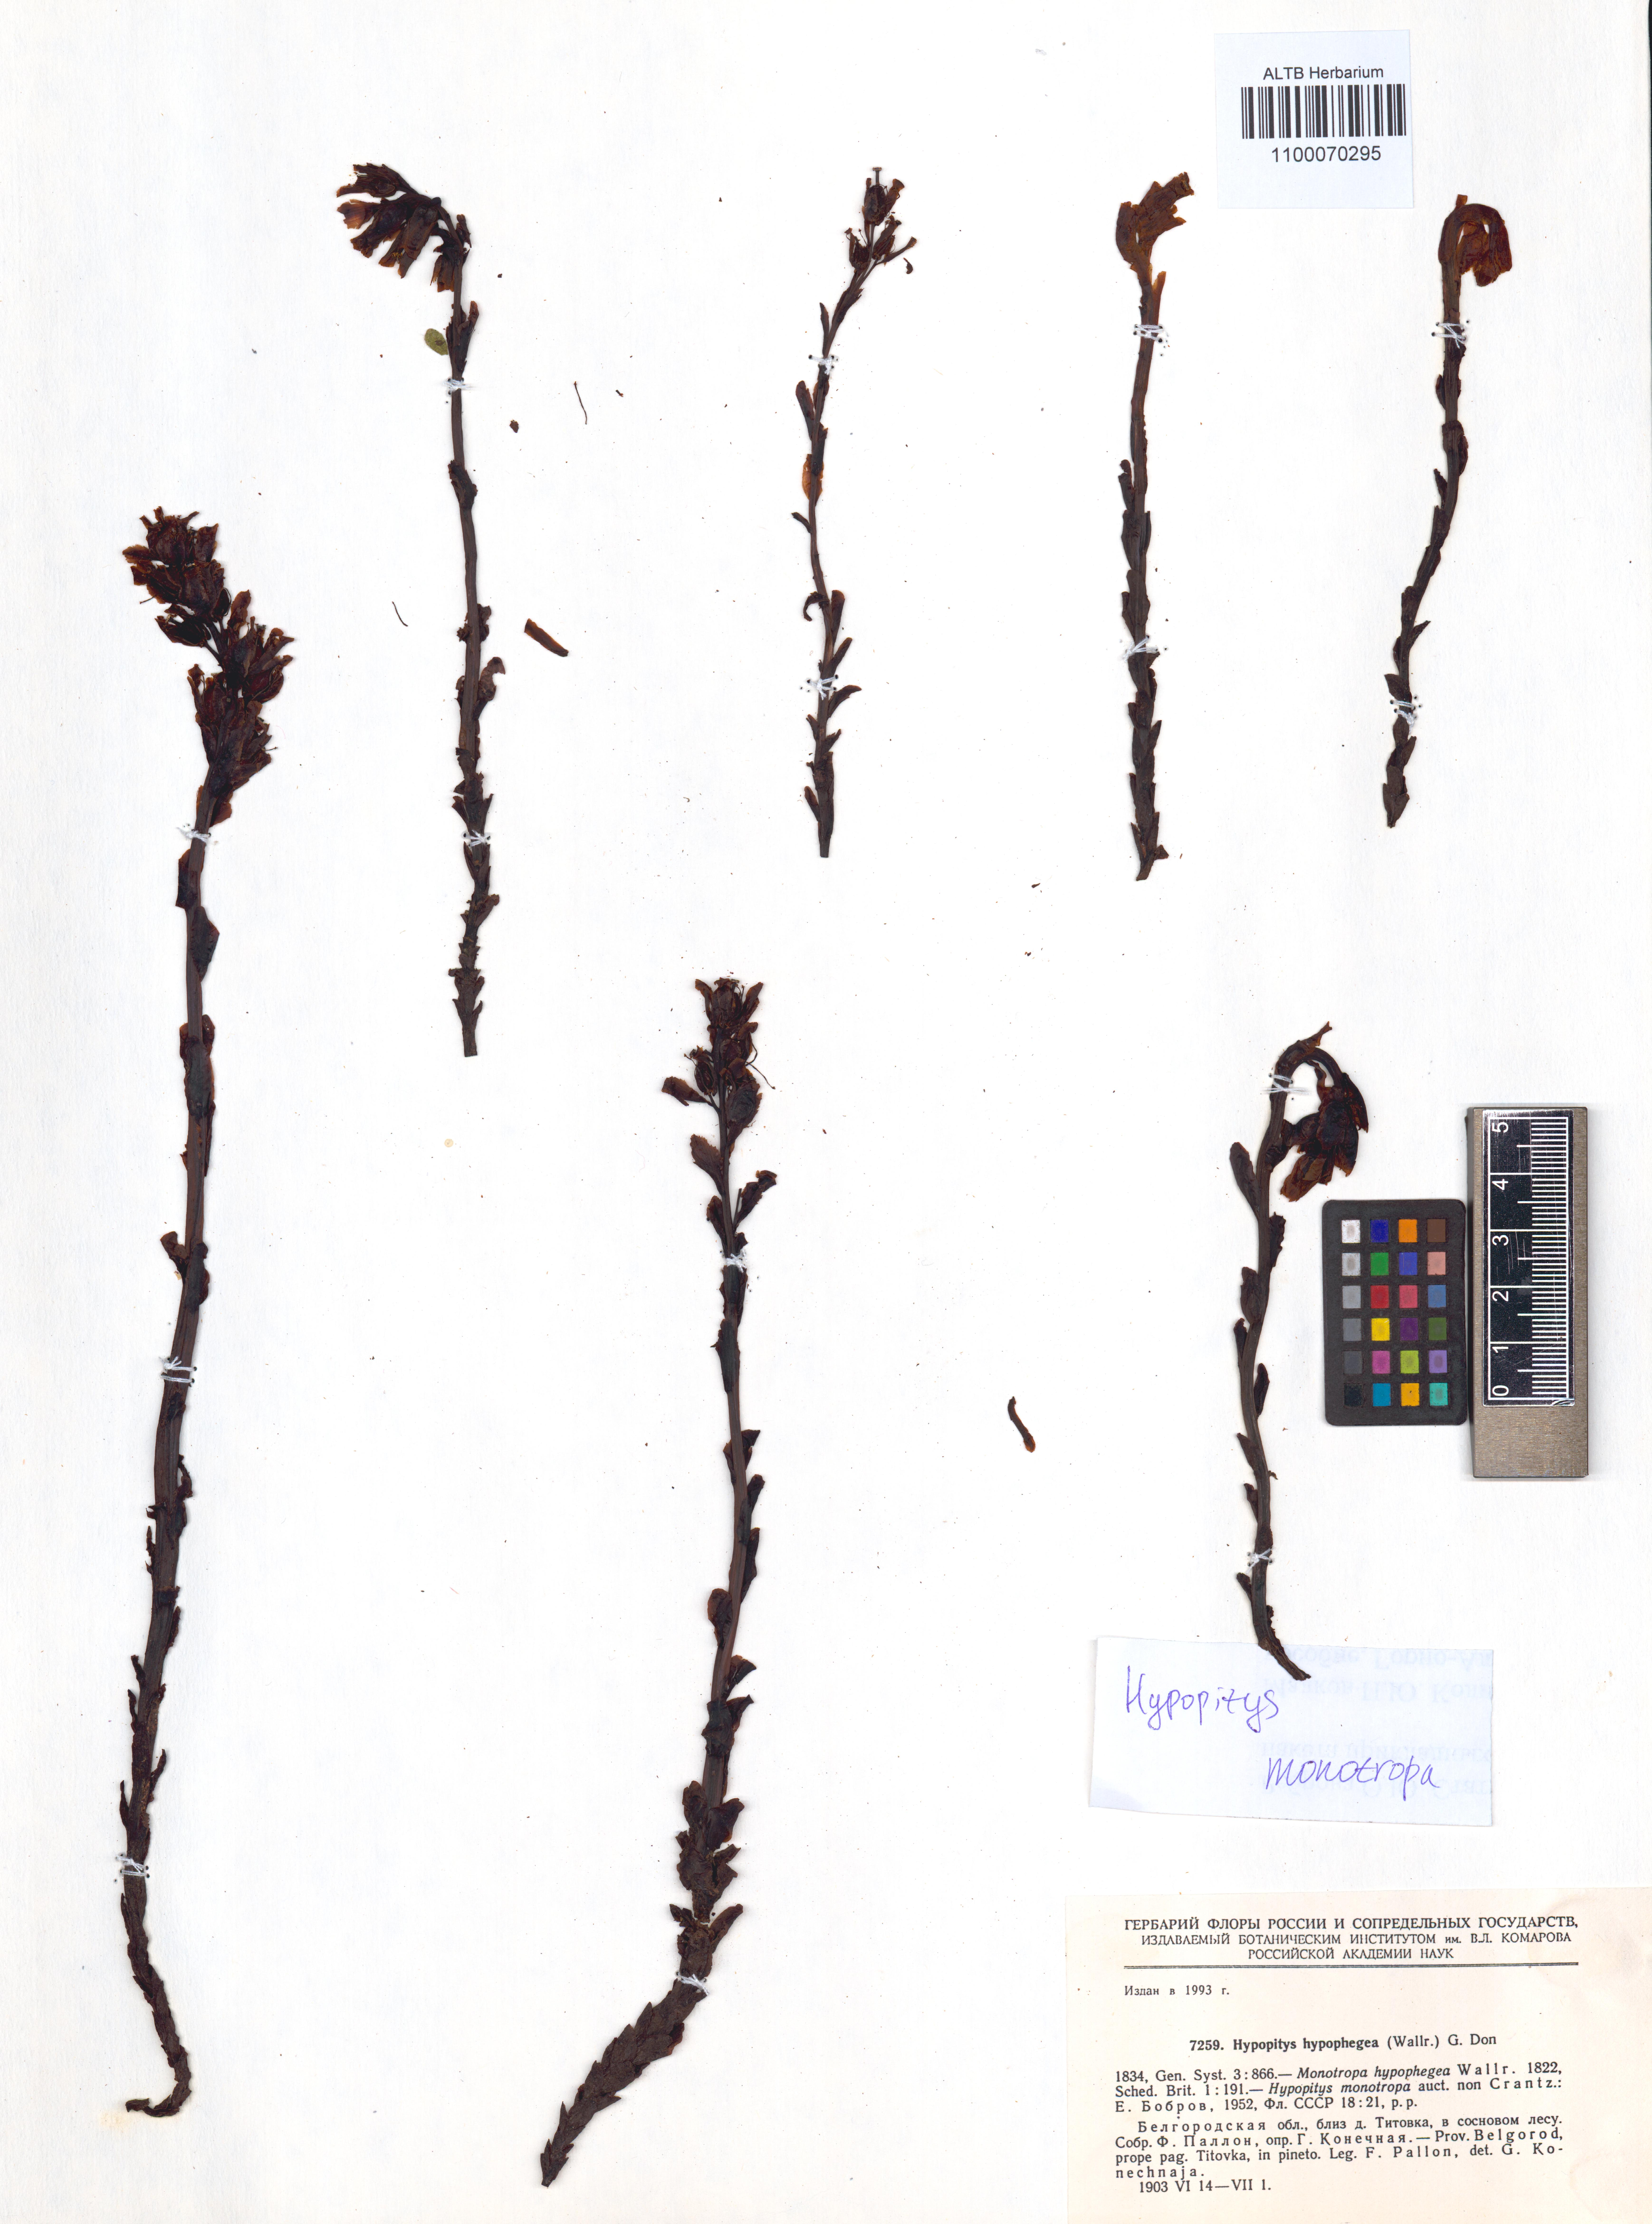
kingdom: Plantae
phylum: Tracheophyta
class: Magnoliopsida
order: Ericales
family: Ericaceae
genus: Hypopitys
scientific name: Hypopitys monotropa
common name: Yellow bird's-nest
